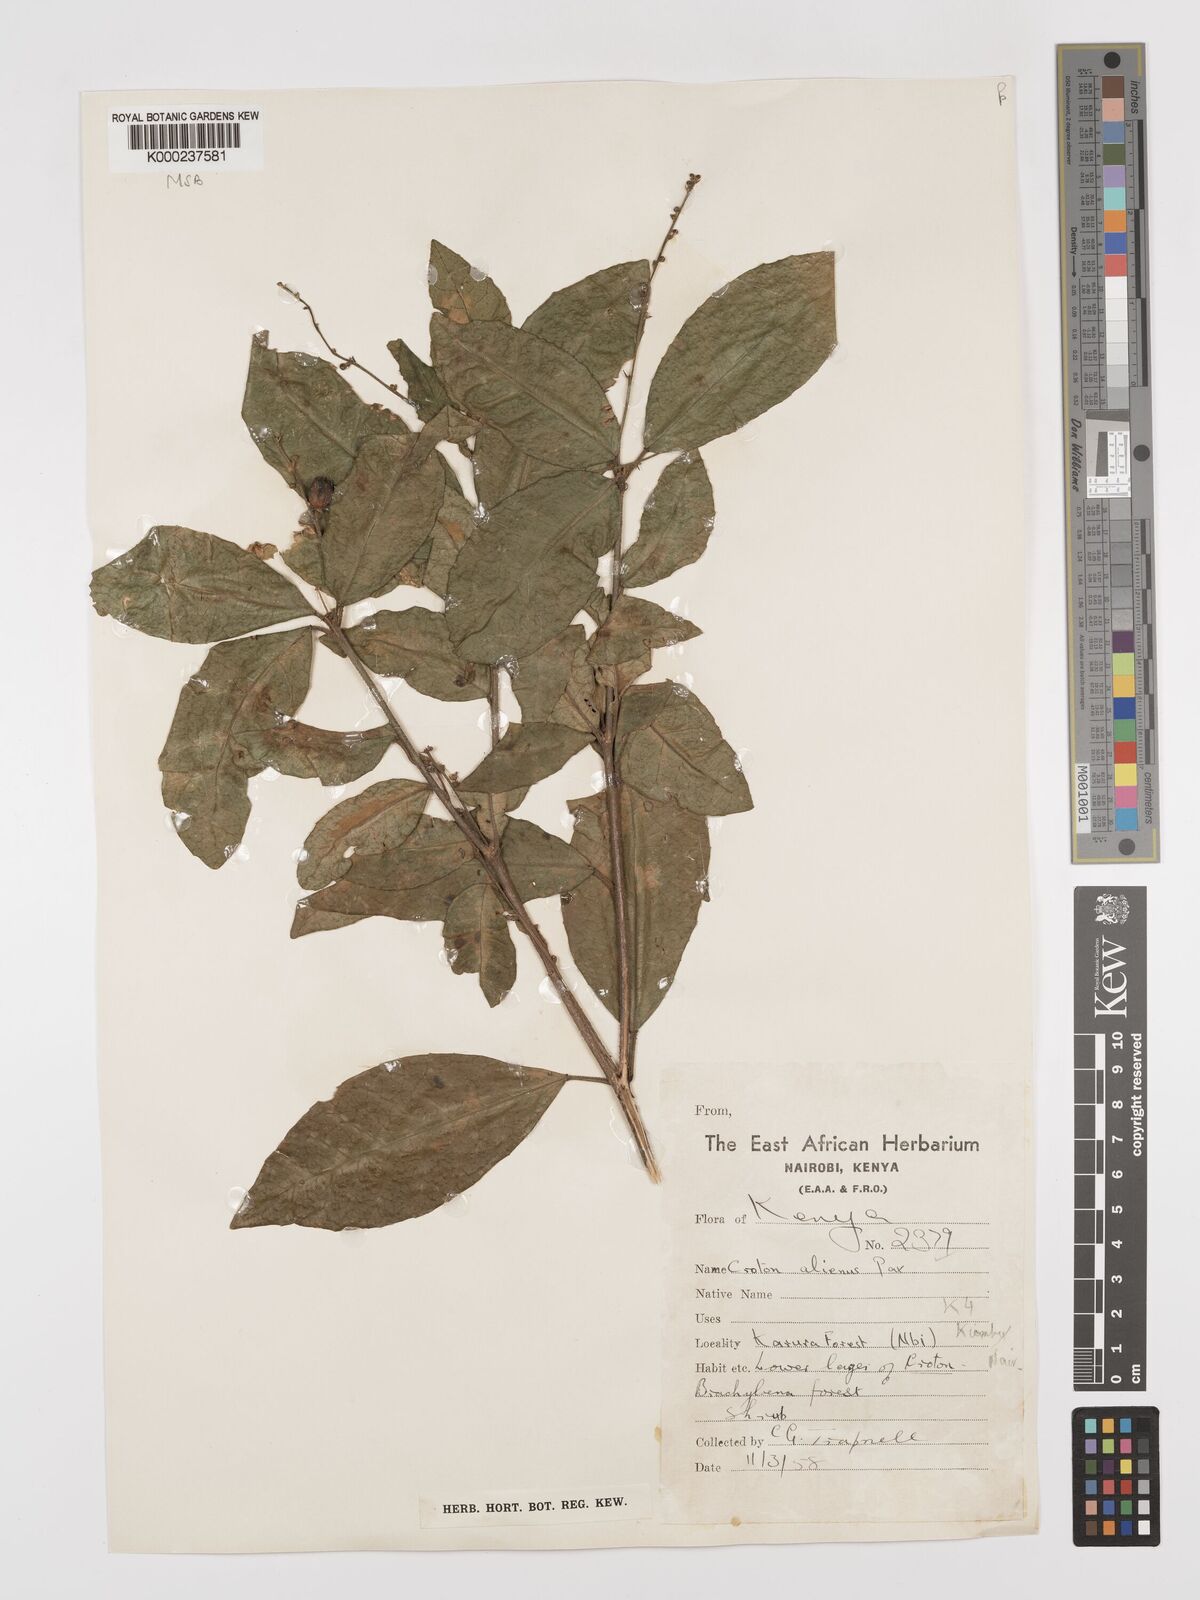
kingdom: Plantae
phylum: Tracheophyta
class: Magnoliopsida
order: Malpighiales
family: Euphorbiaceae
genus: Croton
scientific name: Croton alienus
